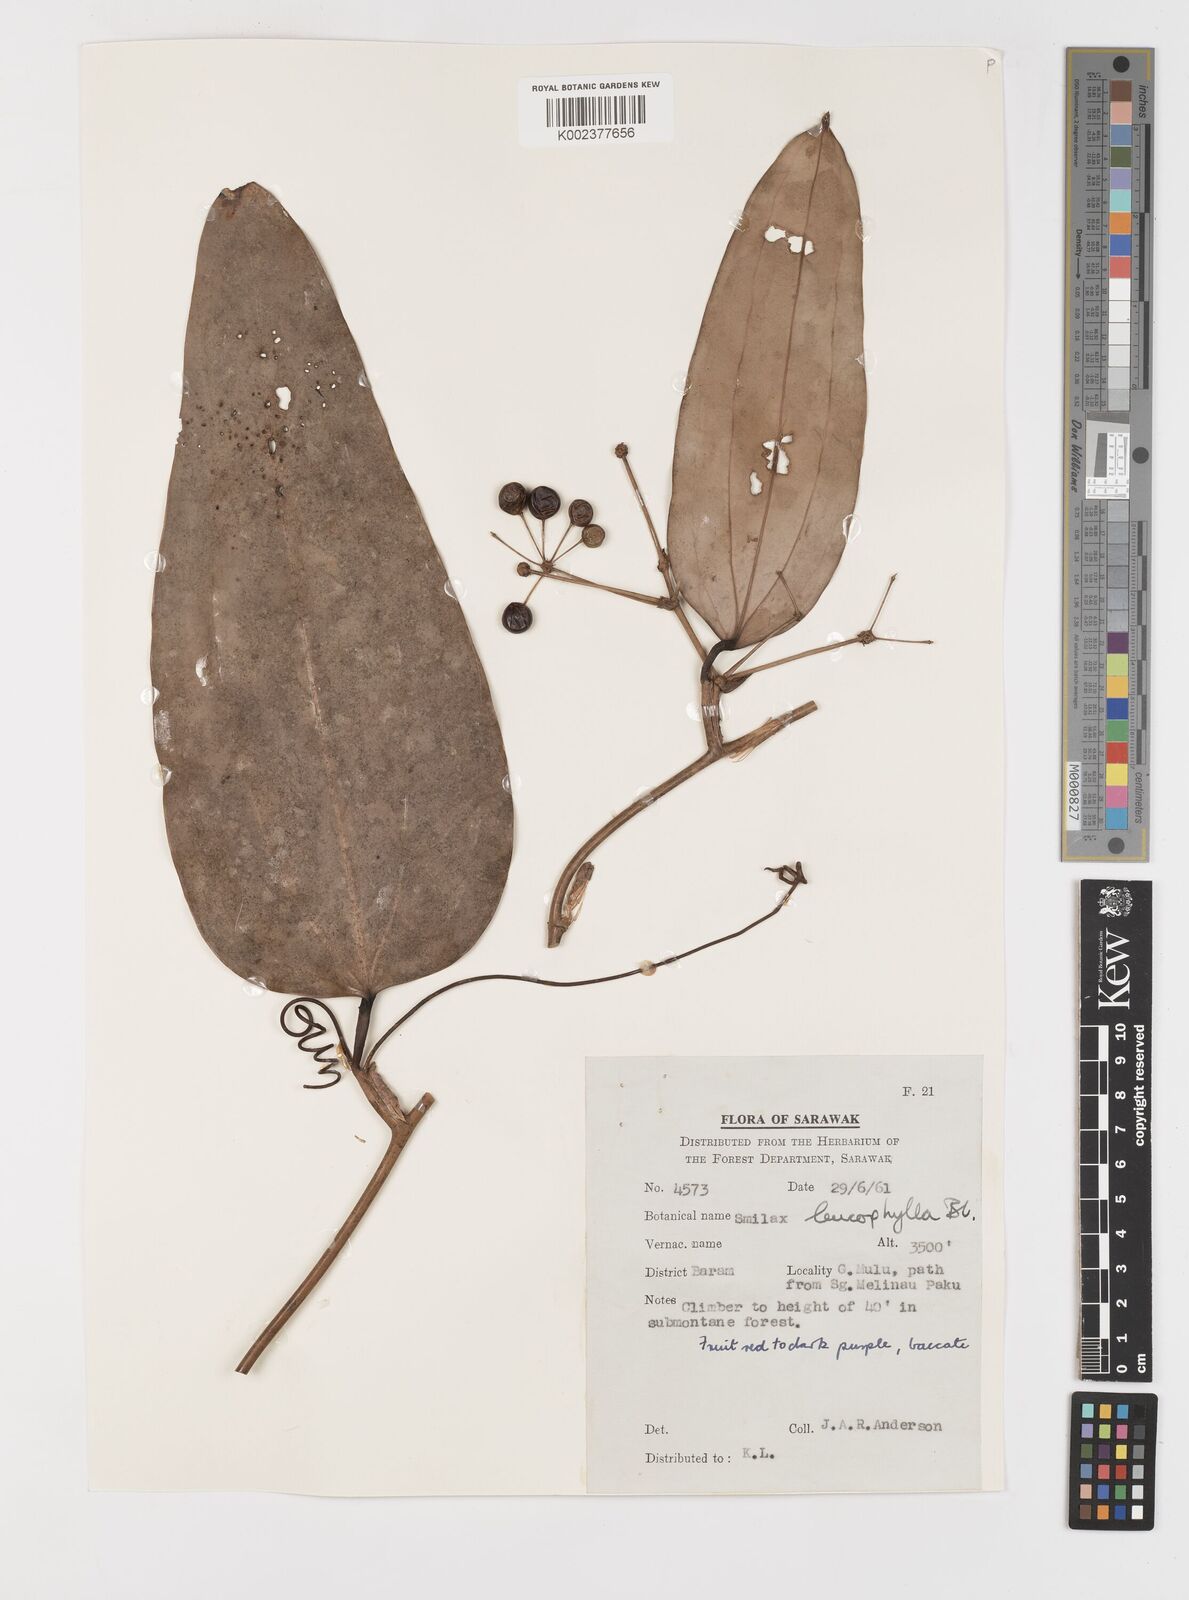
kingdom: Plantae
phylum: Tracheophyta
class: Liliopsida
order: Liliales
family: Smilacaceae
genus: Smilax
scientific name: Smilax leucophylla
